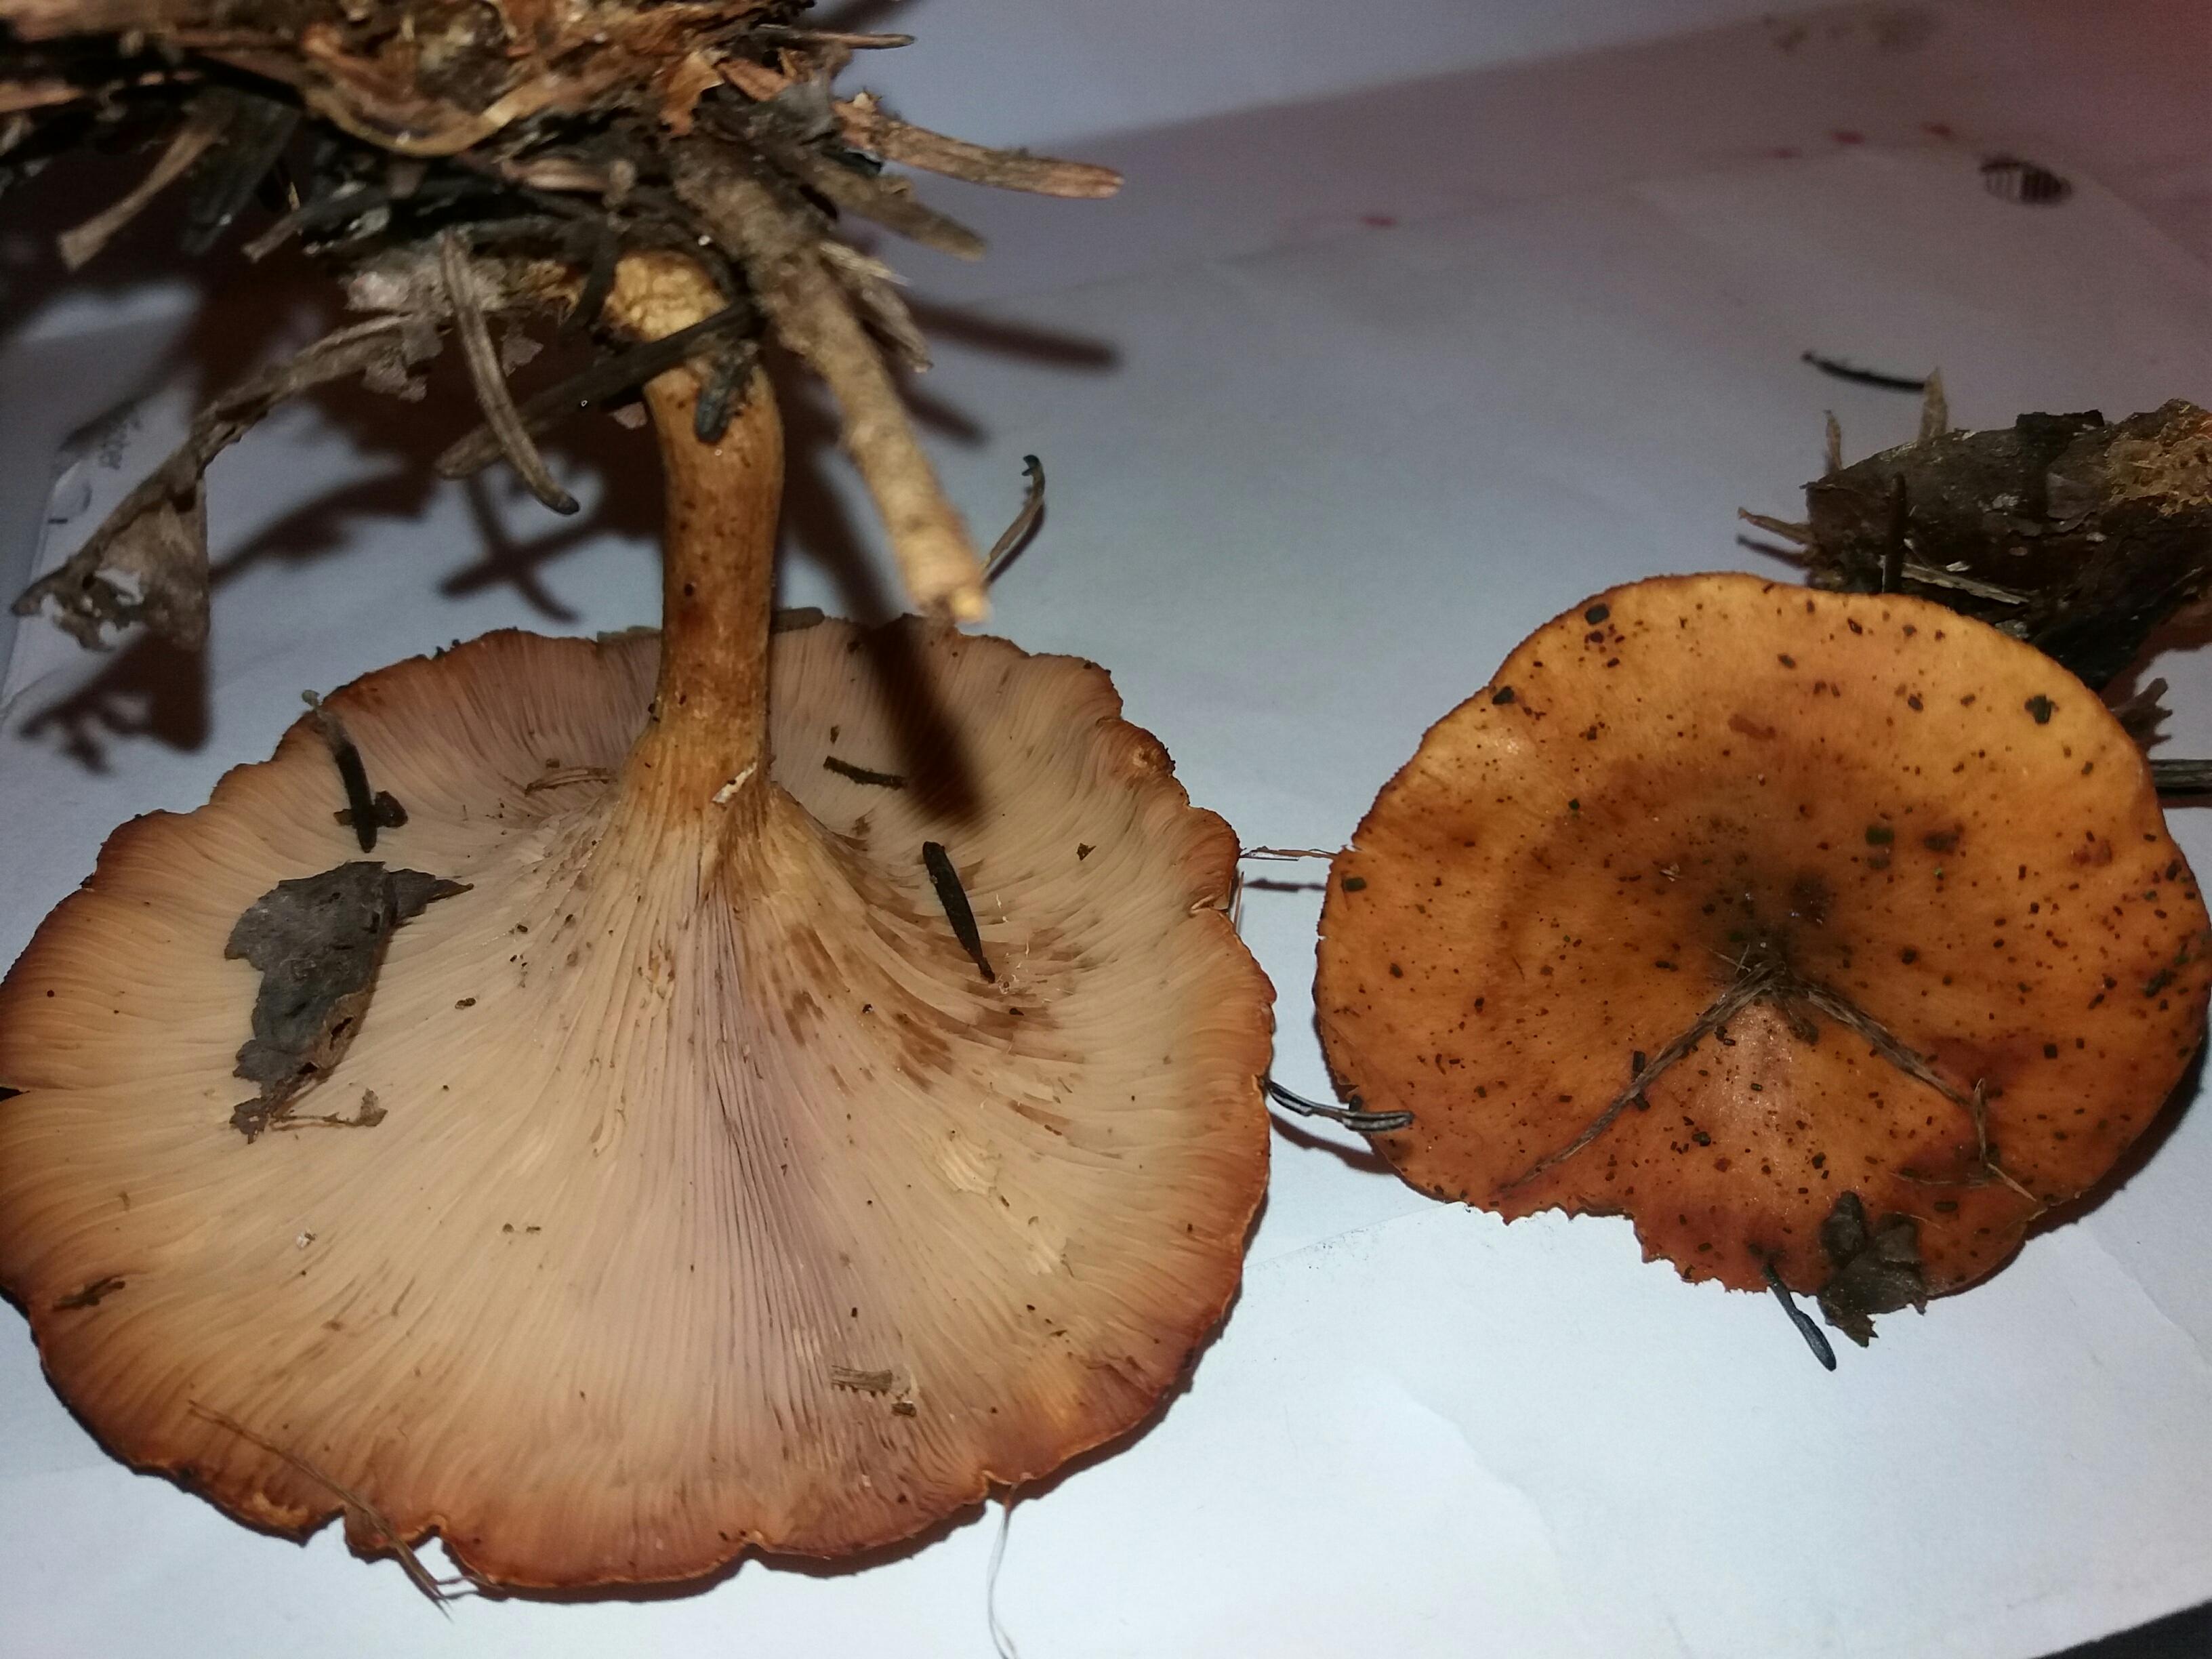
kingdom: Fungi
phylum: Basidiomycota
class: Agaricomycetes
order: Agaricales
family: Tricholomataceae
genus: Paralepista
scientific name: Paralepista flaccida
